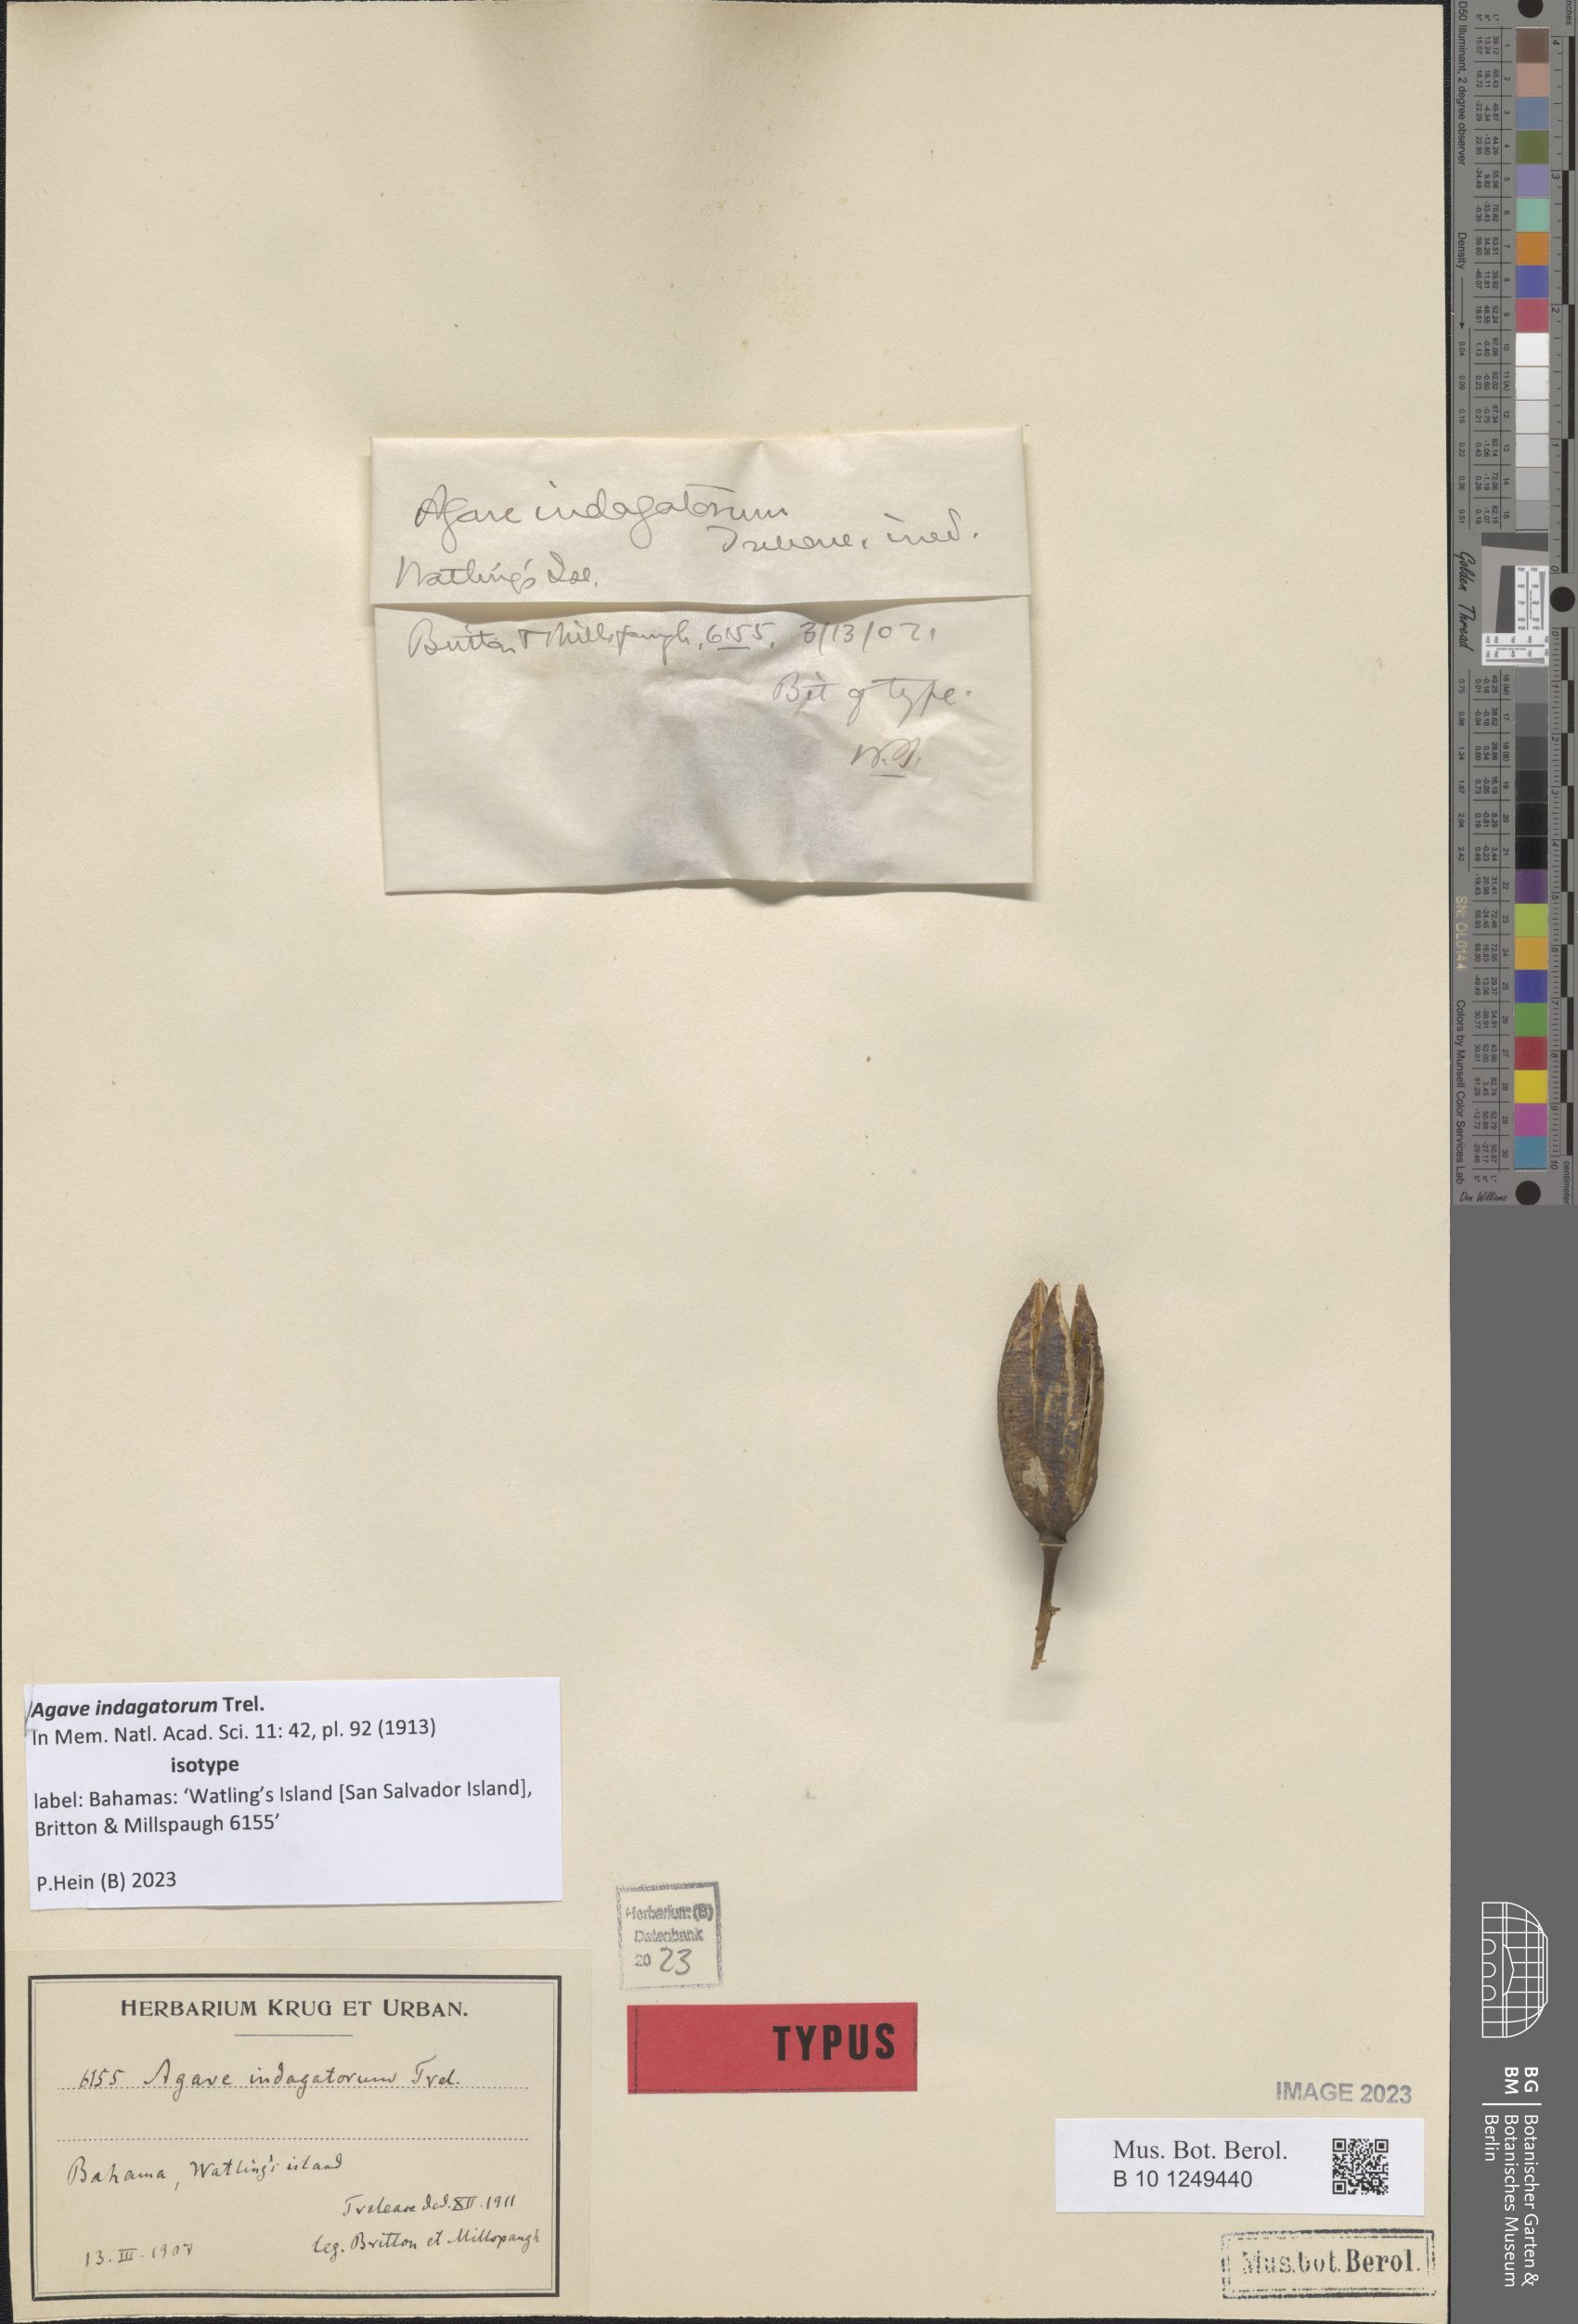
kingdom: Plantae
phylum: Tracheophyta
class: Liliopsida
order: Asparagales
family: Asparagaceae
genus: Agave
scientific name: Agave indagatorum
